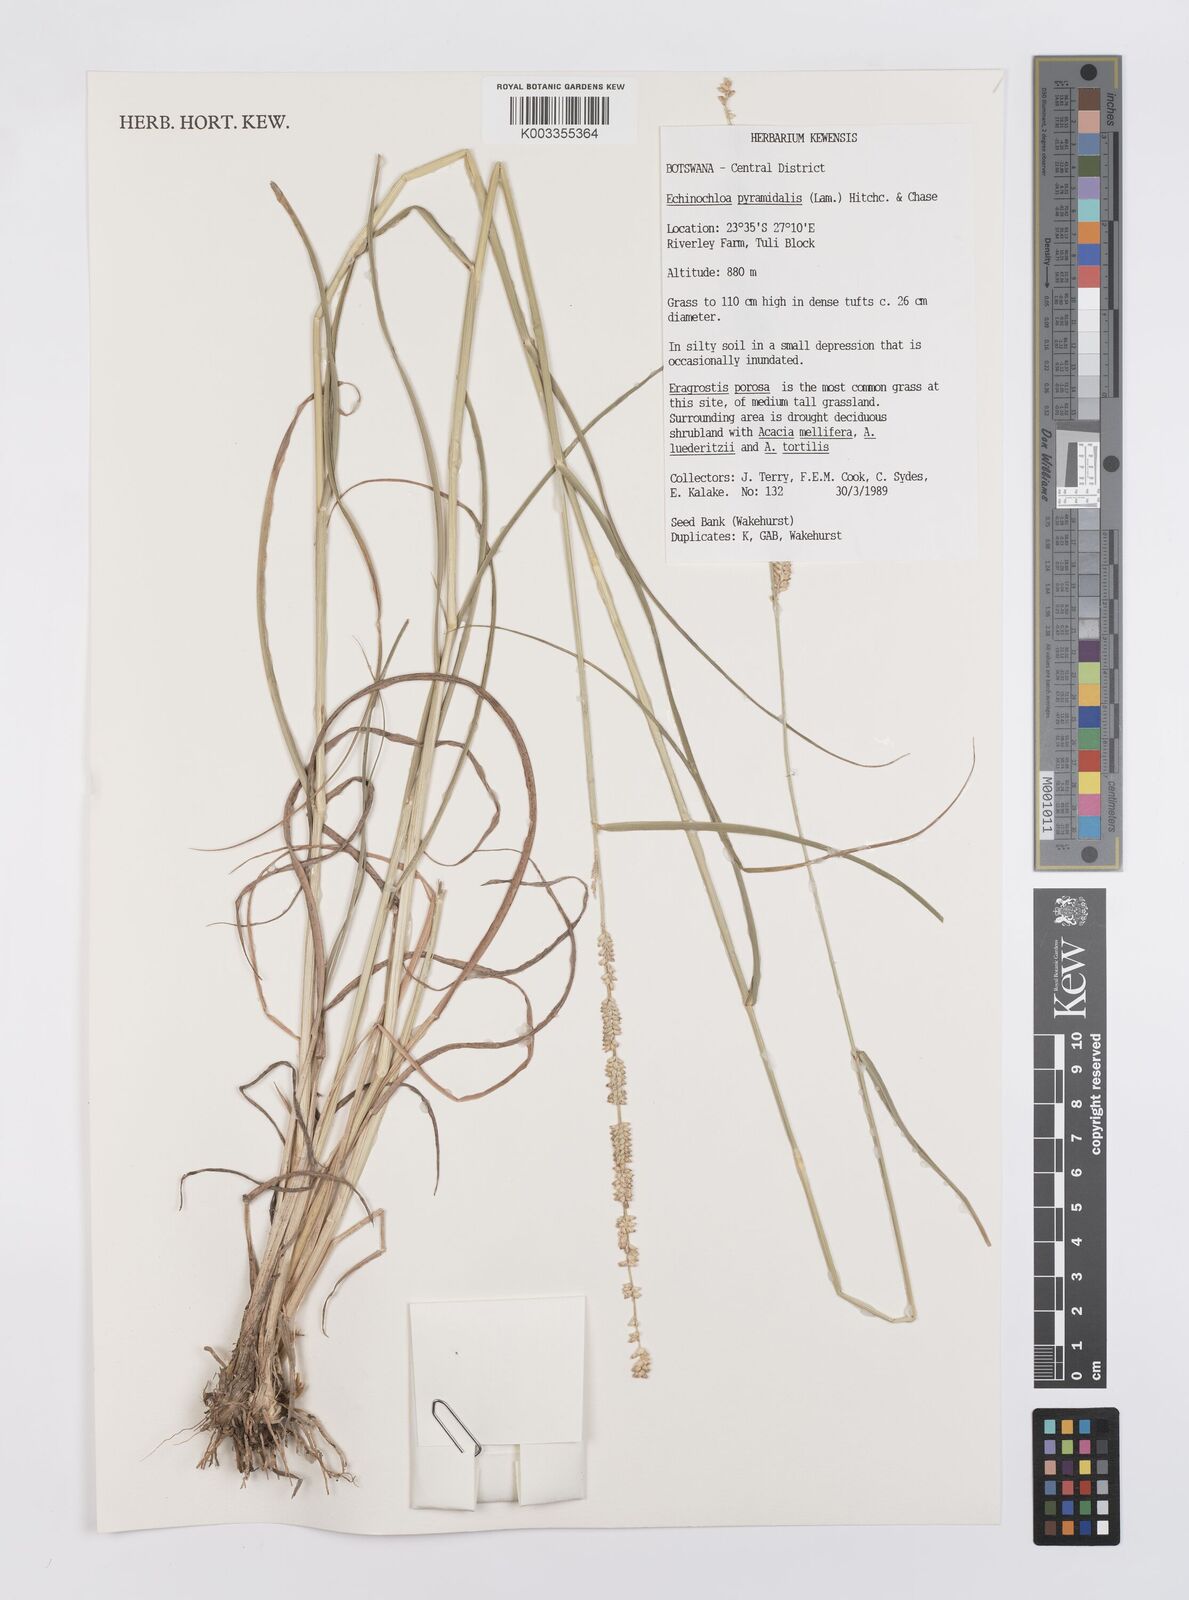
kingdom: Plantae
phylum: Tracheophyta
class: Liliopsida
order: Poales
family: Poaceae
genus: Echinochloa
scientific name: Echinochloa pyramidalis
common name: Antelope grass
